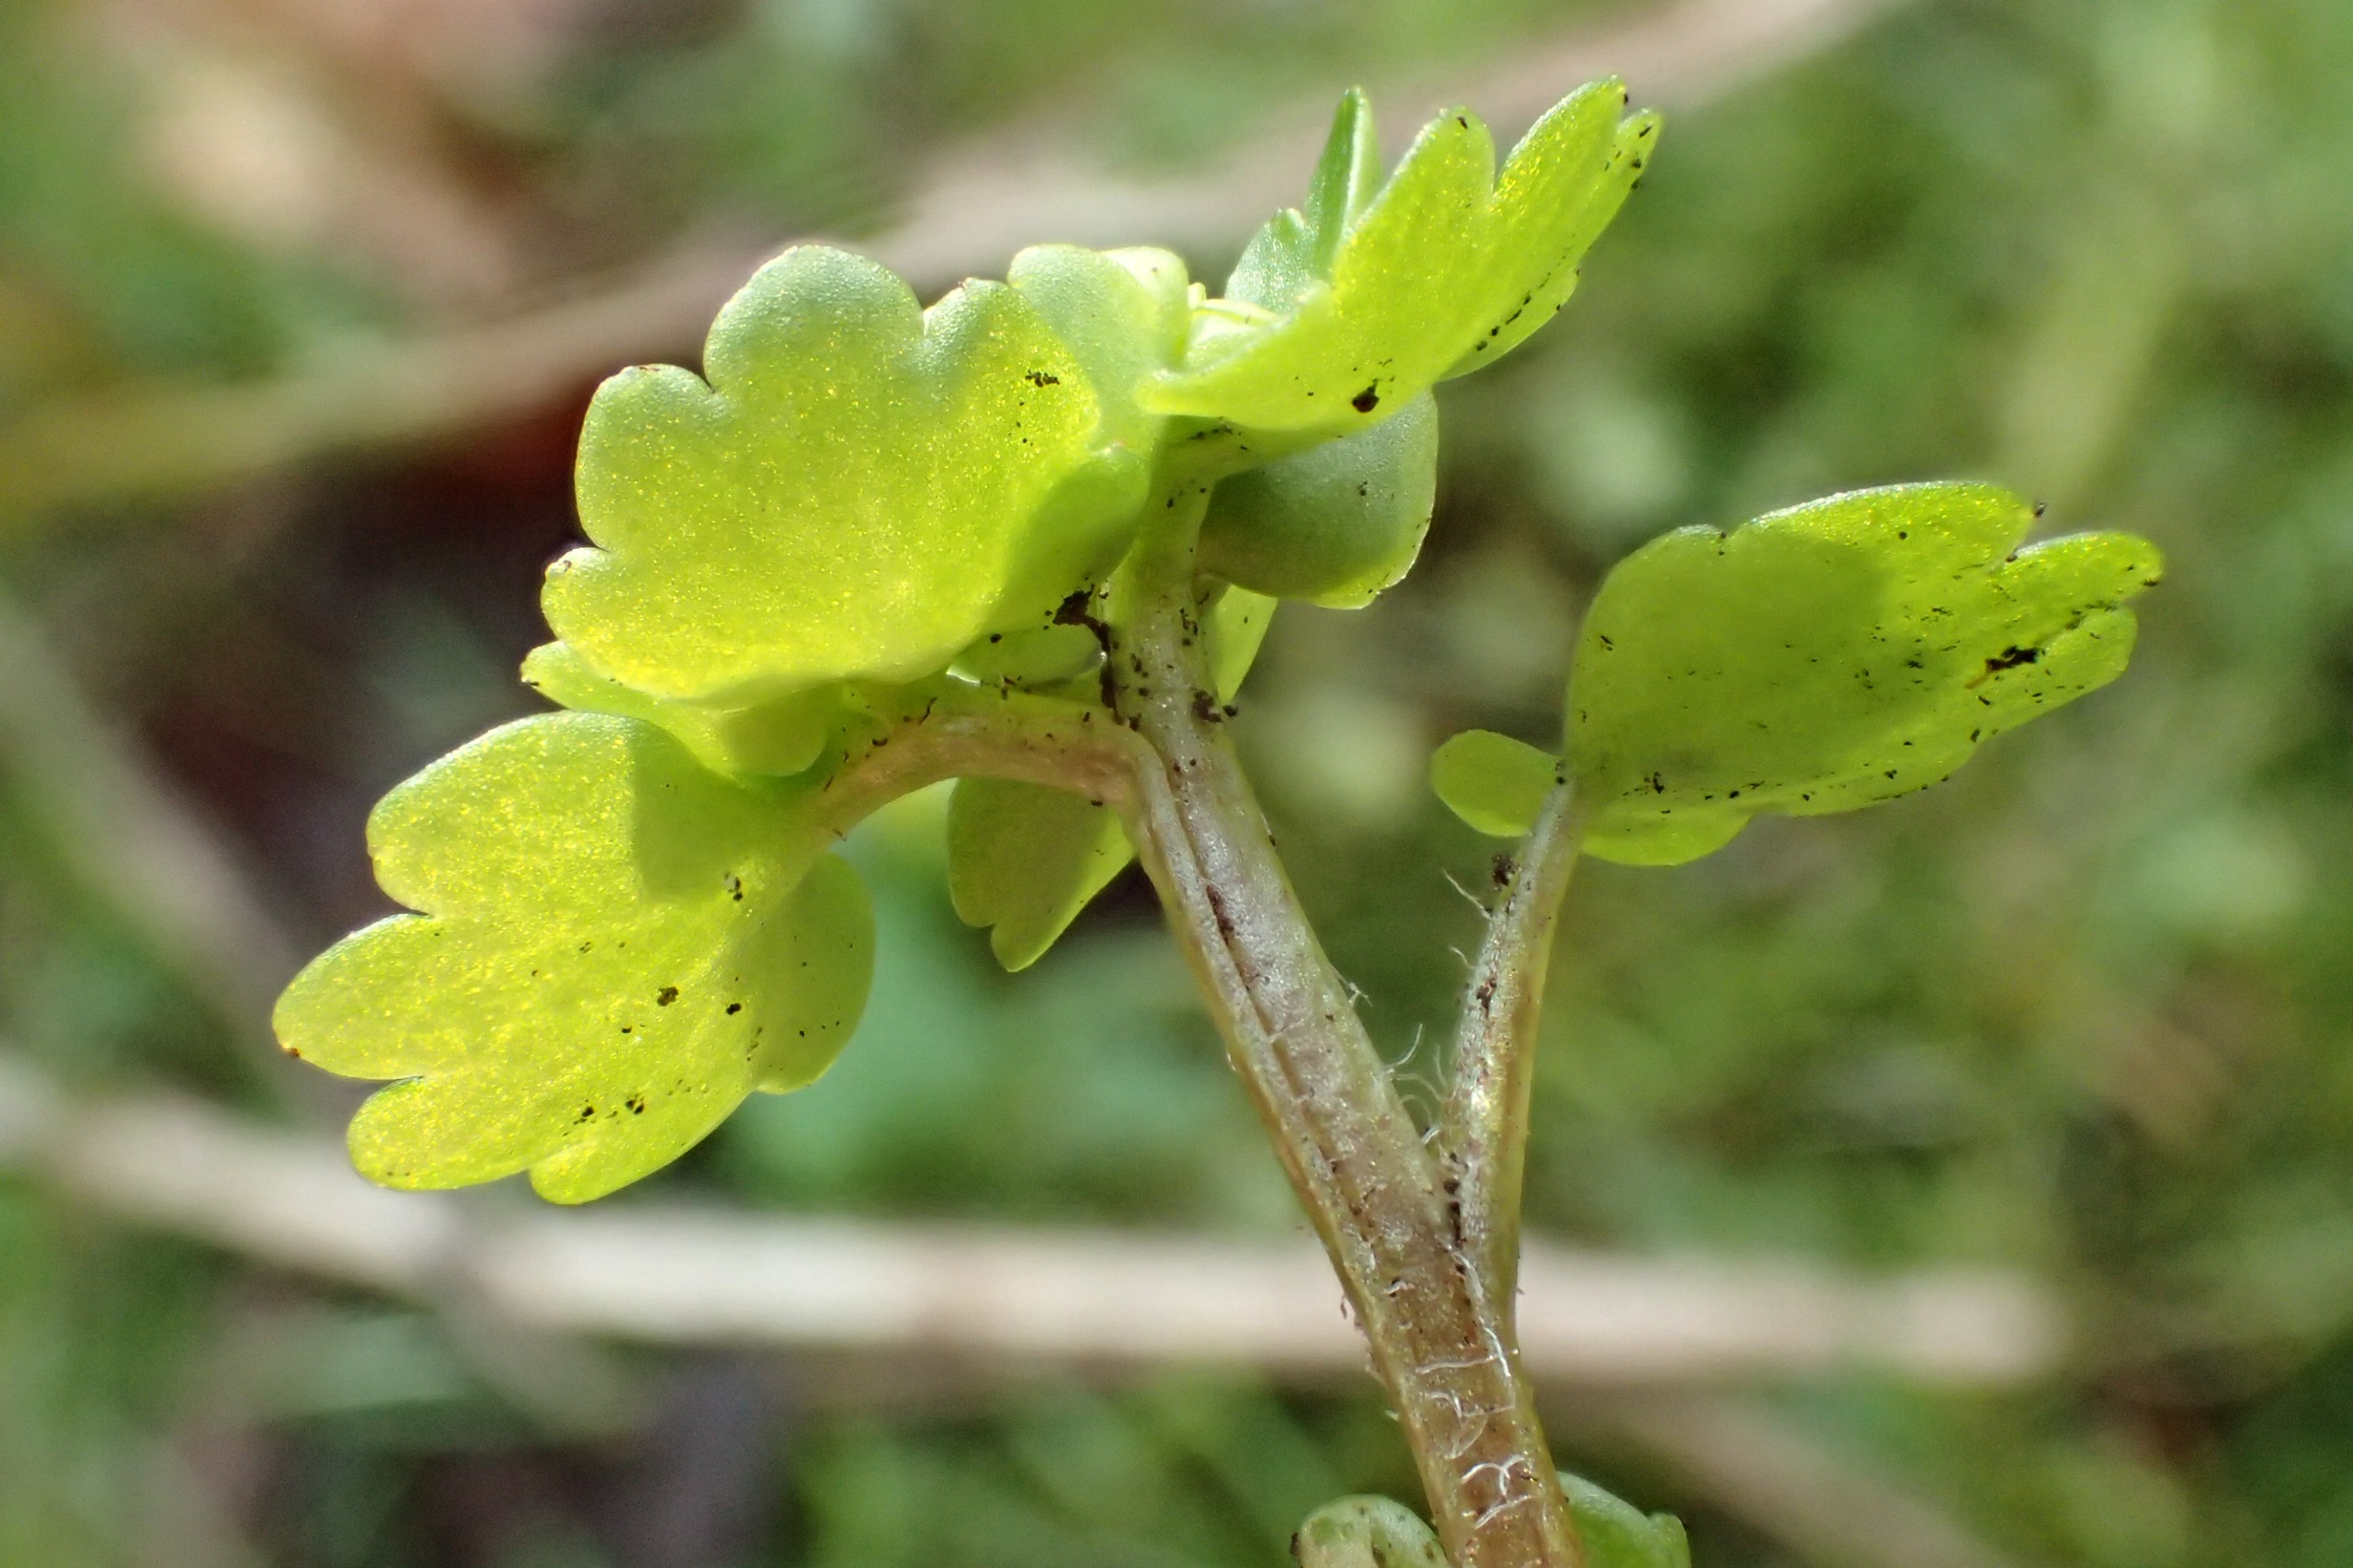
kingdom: Plantae
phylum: Tracheophyta
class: Magnoliopsida
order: Saxifragales
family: Saxifragaceae
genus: Chrysosplenium
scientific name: Chrysosplenium alternifolium
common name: Almindelig milturt
